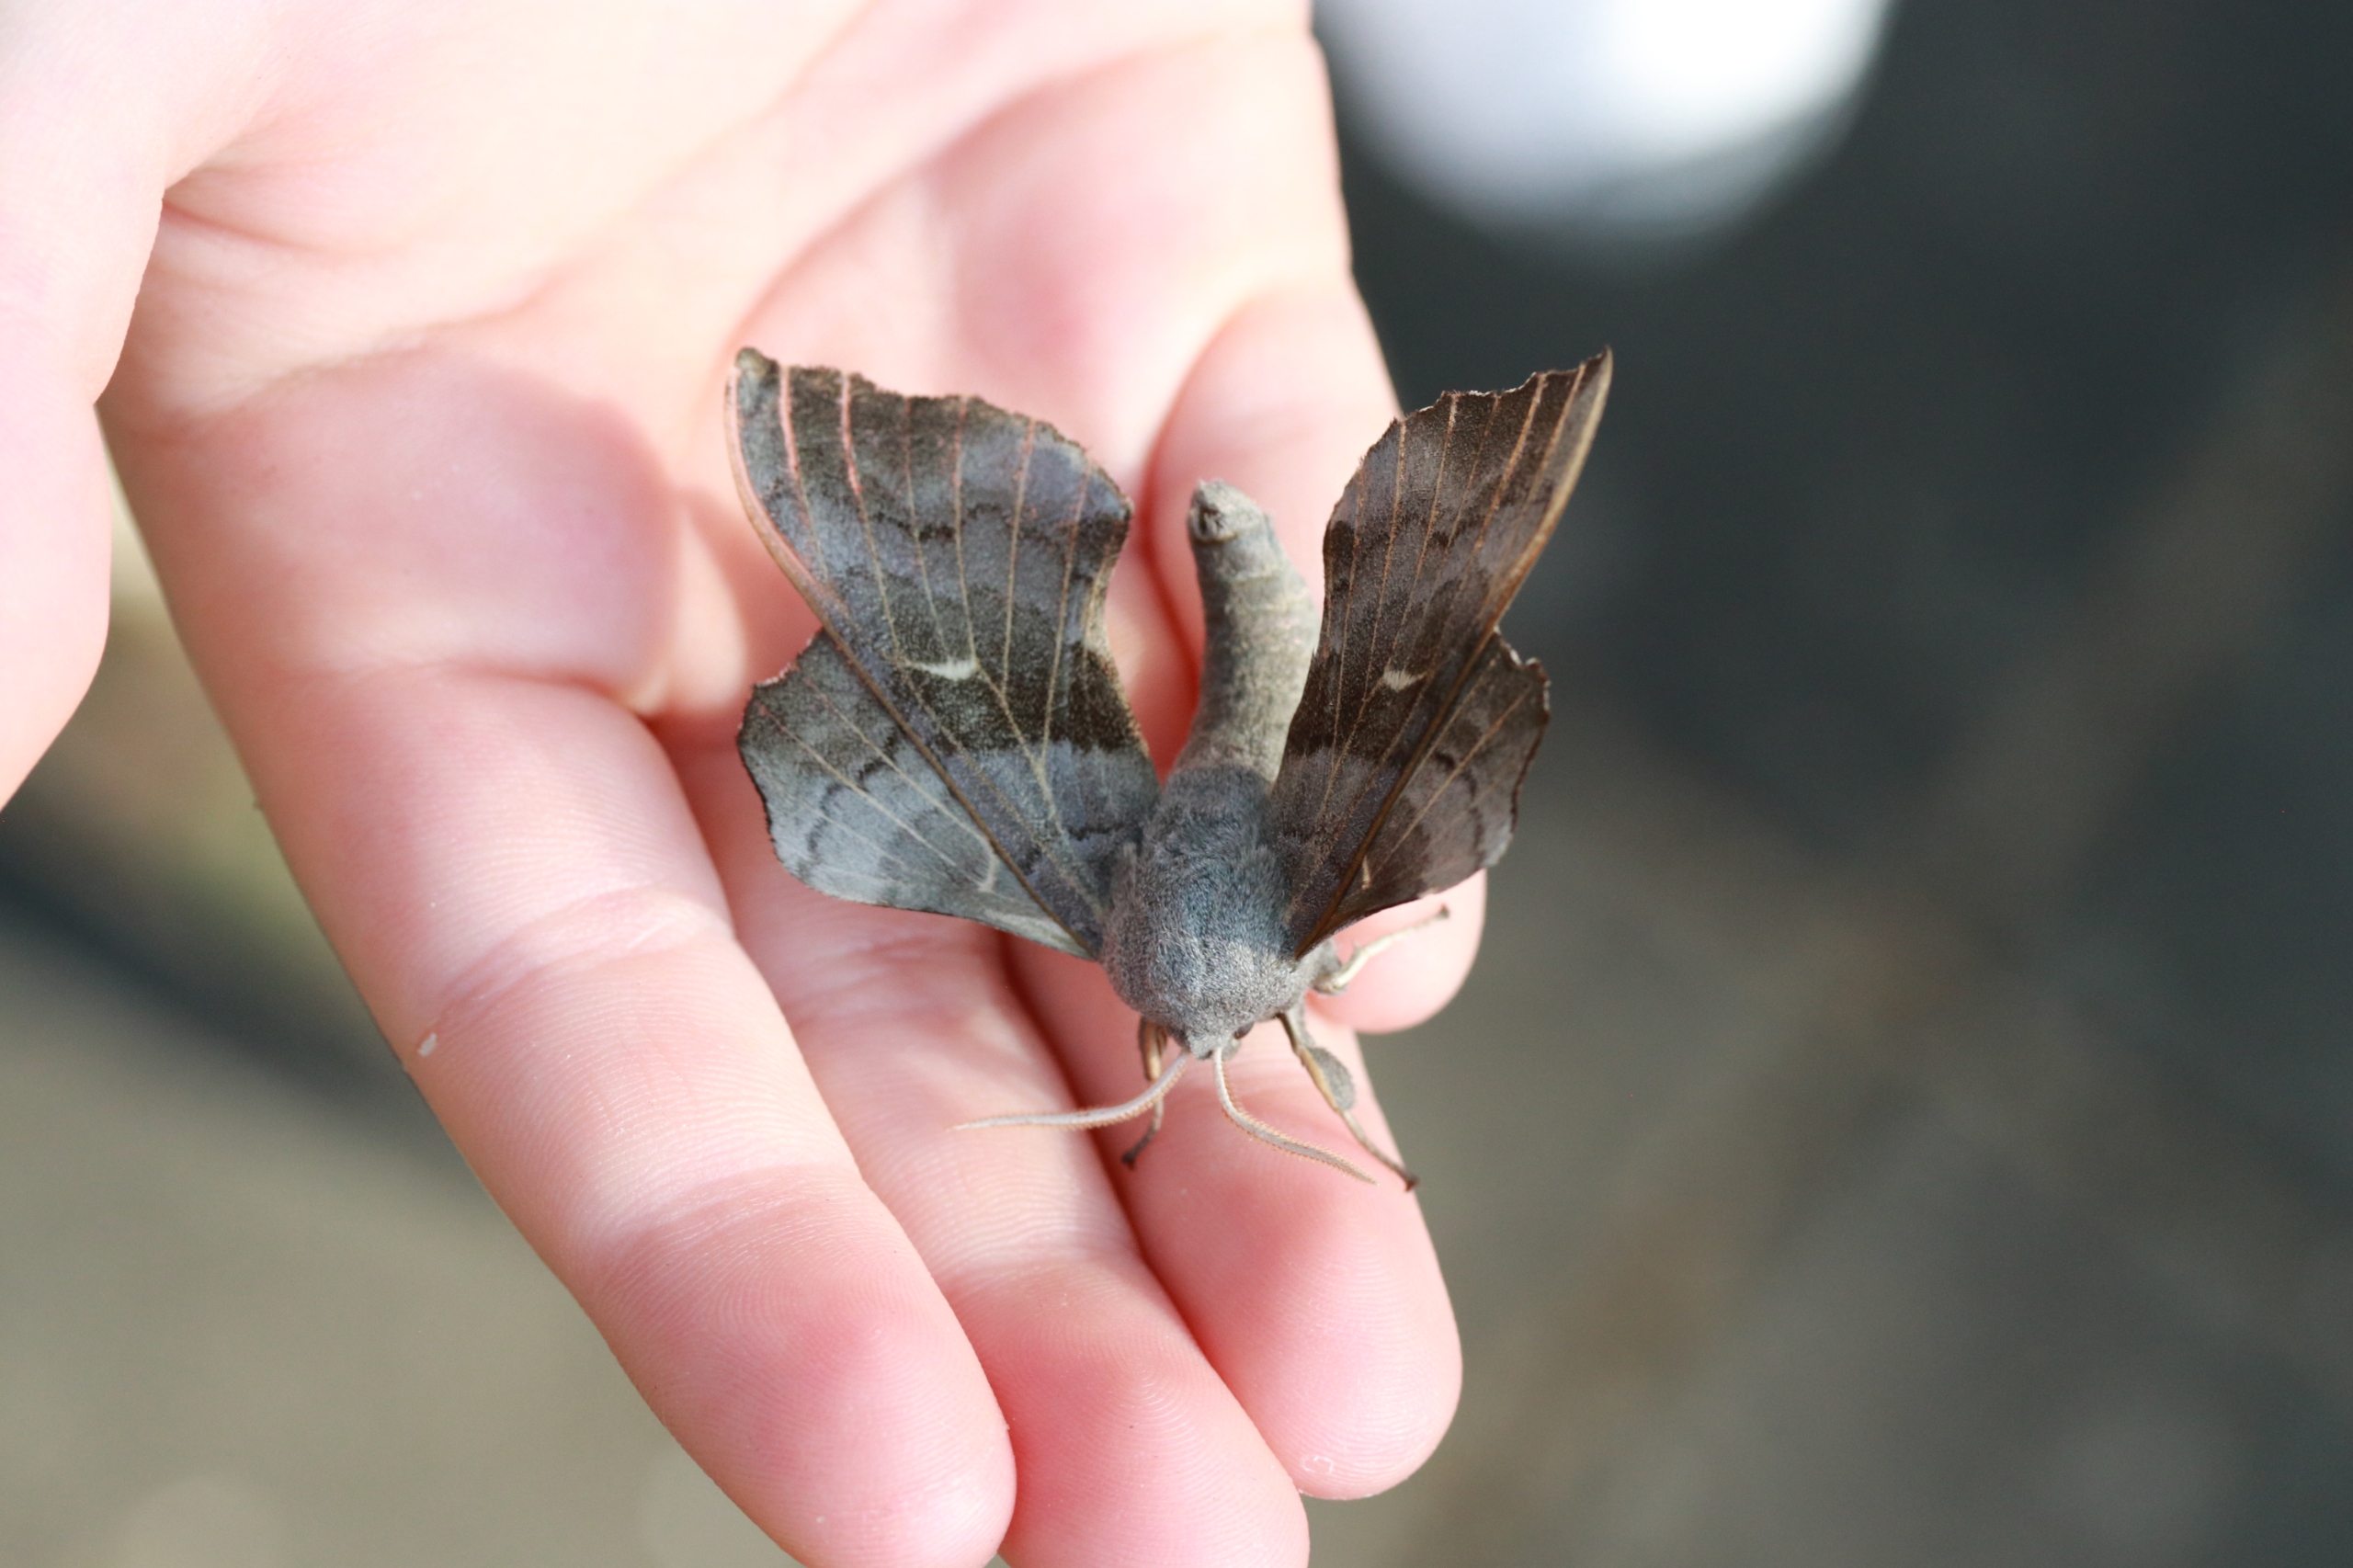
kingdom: Animalia
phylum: Arthropoda
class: Insecta
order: Lepidoptera
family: Sphingidae
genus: Laothoe
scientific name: Laothoe populi
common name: Poppelsværmer
